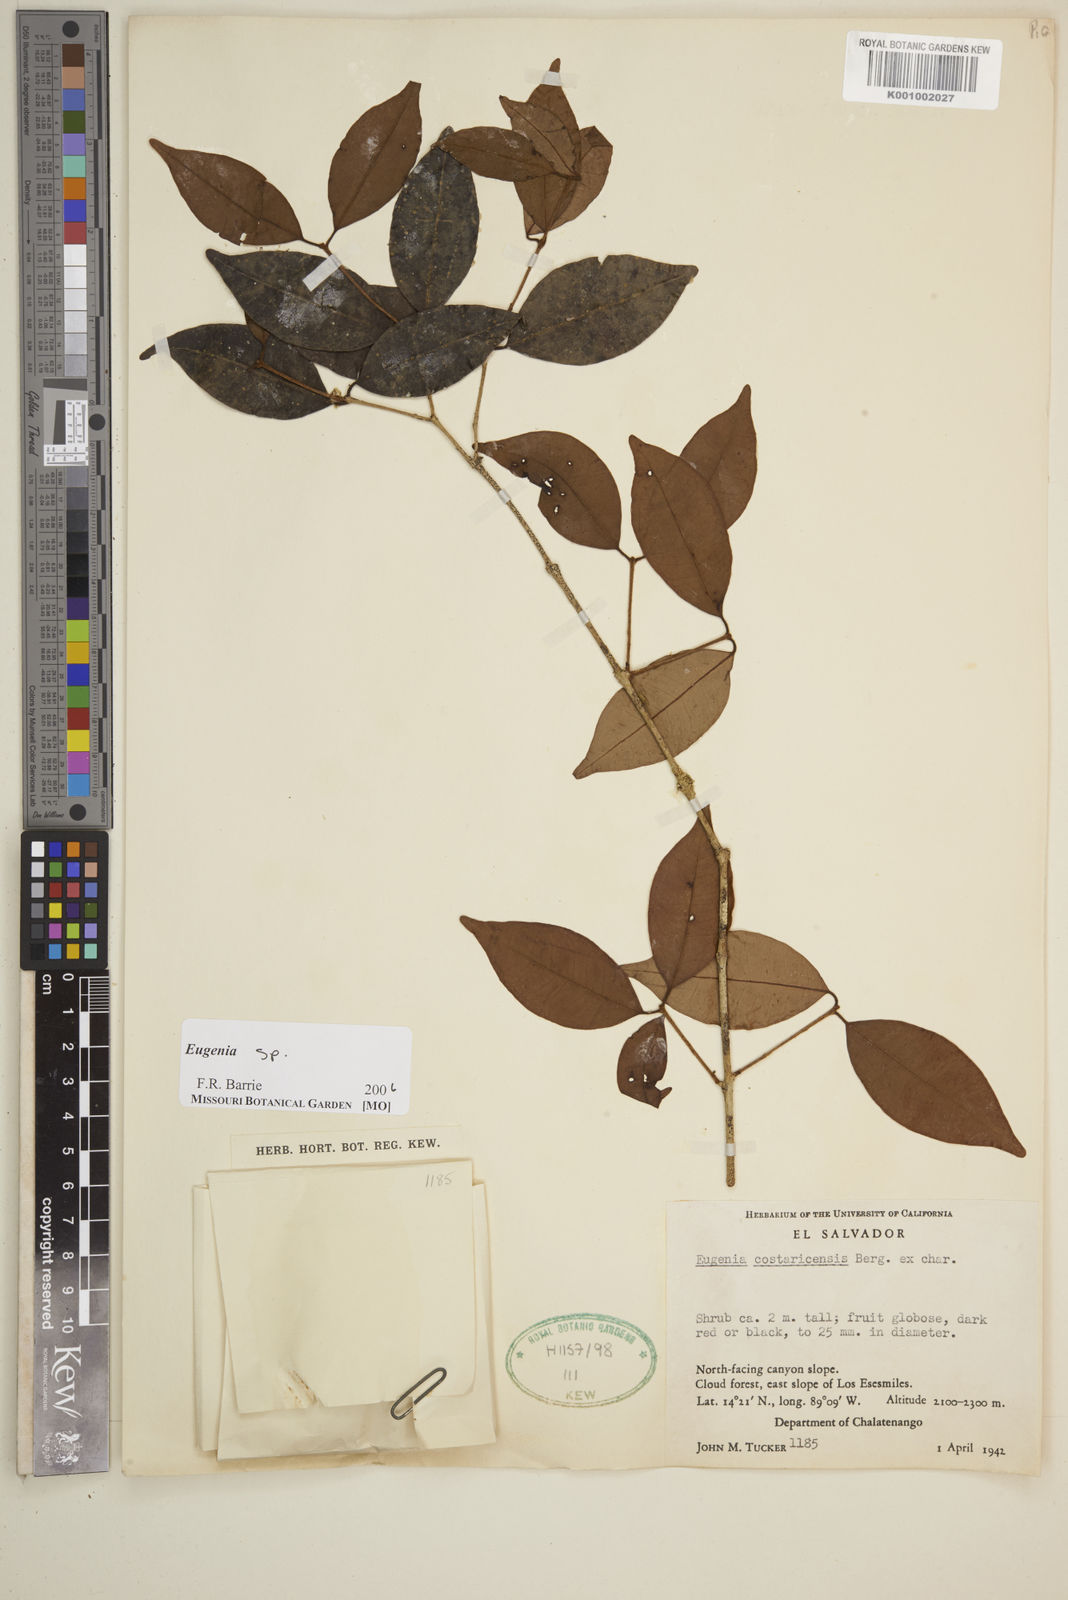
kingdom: Plantae
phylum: Tracheophyta
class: Magnoliopsida
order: Myrtales
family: Myrtaceae
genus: Eugenia
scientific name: Eugenia
